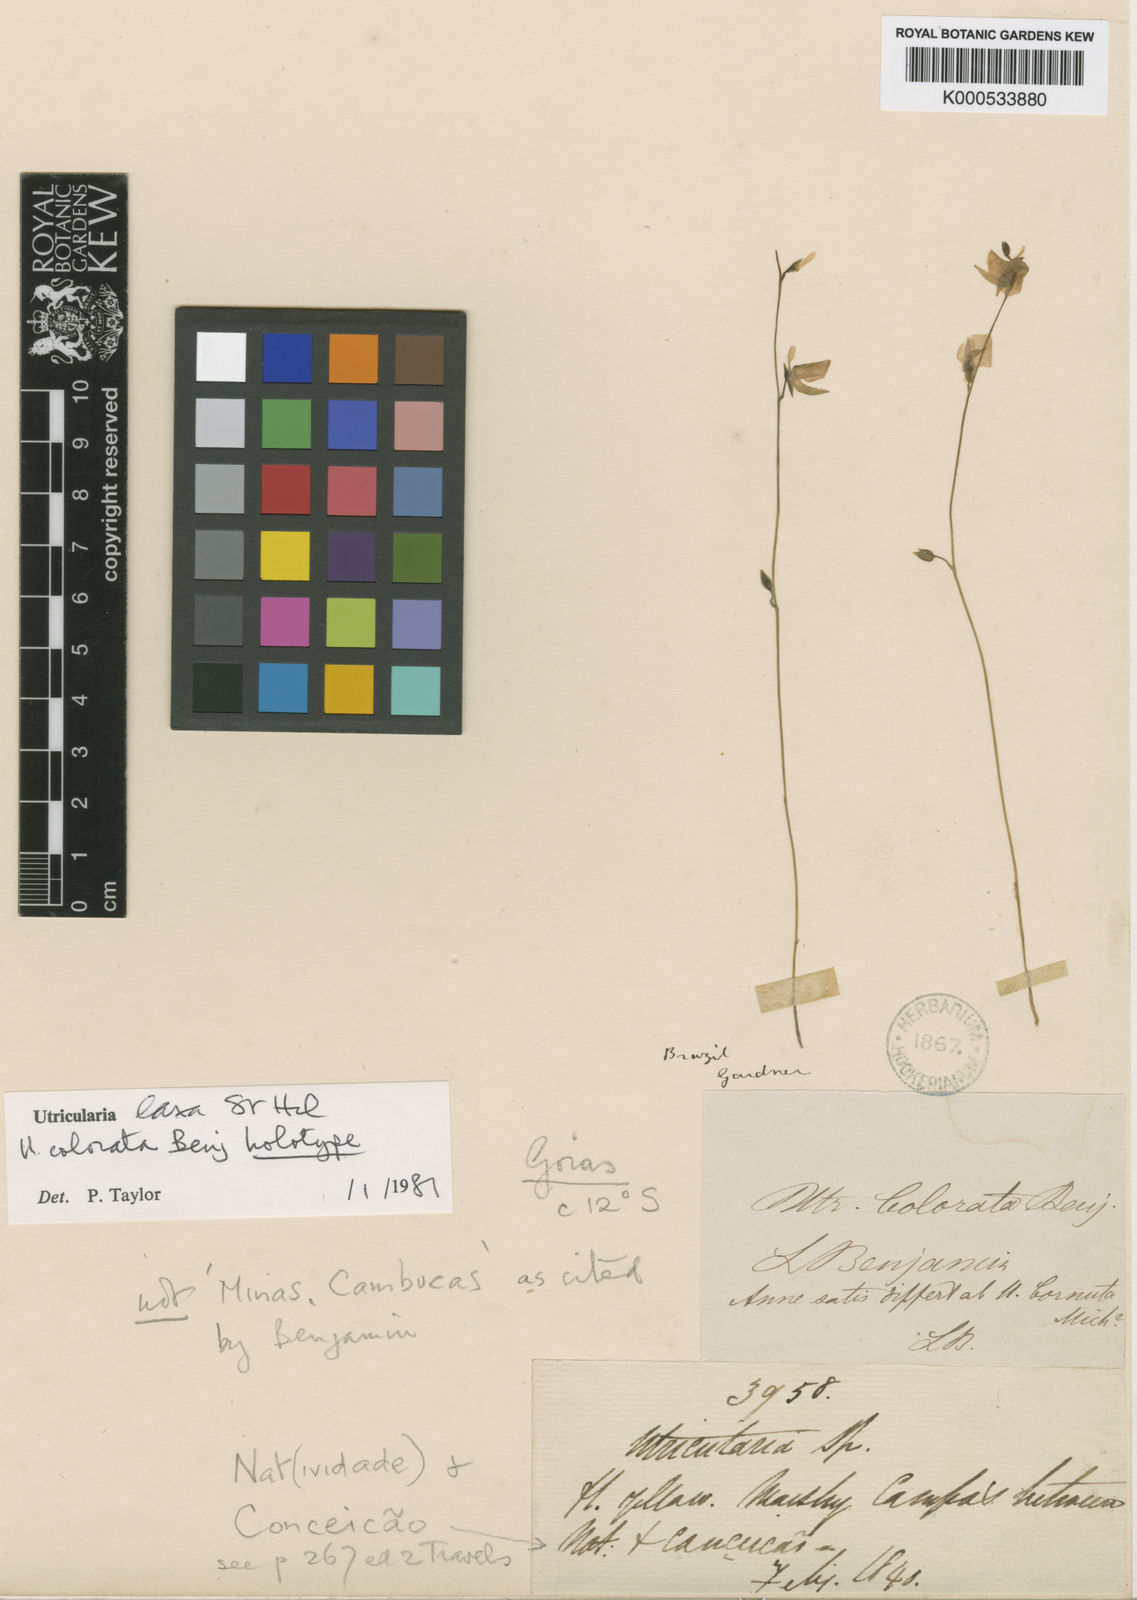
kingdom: Plantae
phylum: Tracheophyta
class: Magnoliopsida
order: Lamiales
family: Lentibulariaceae
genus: Utricularia
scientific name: Utricularia laxa
